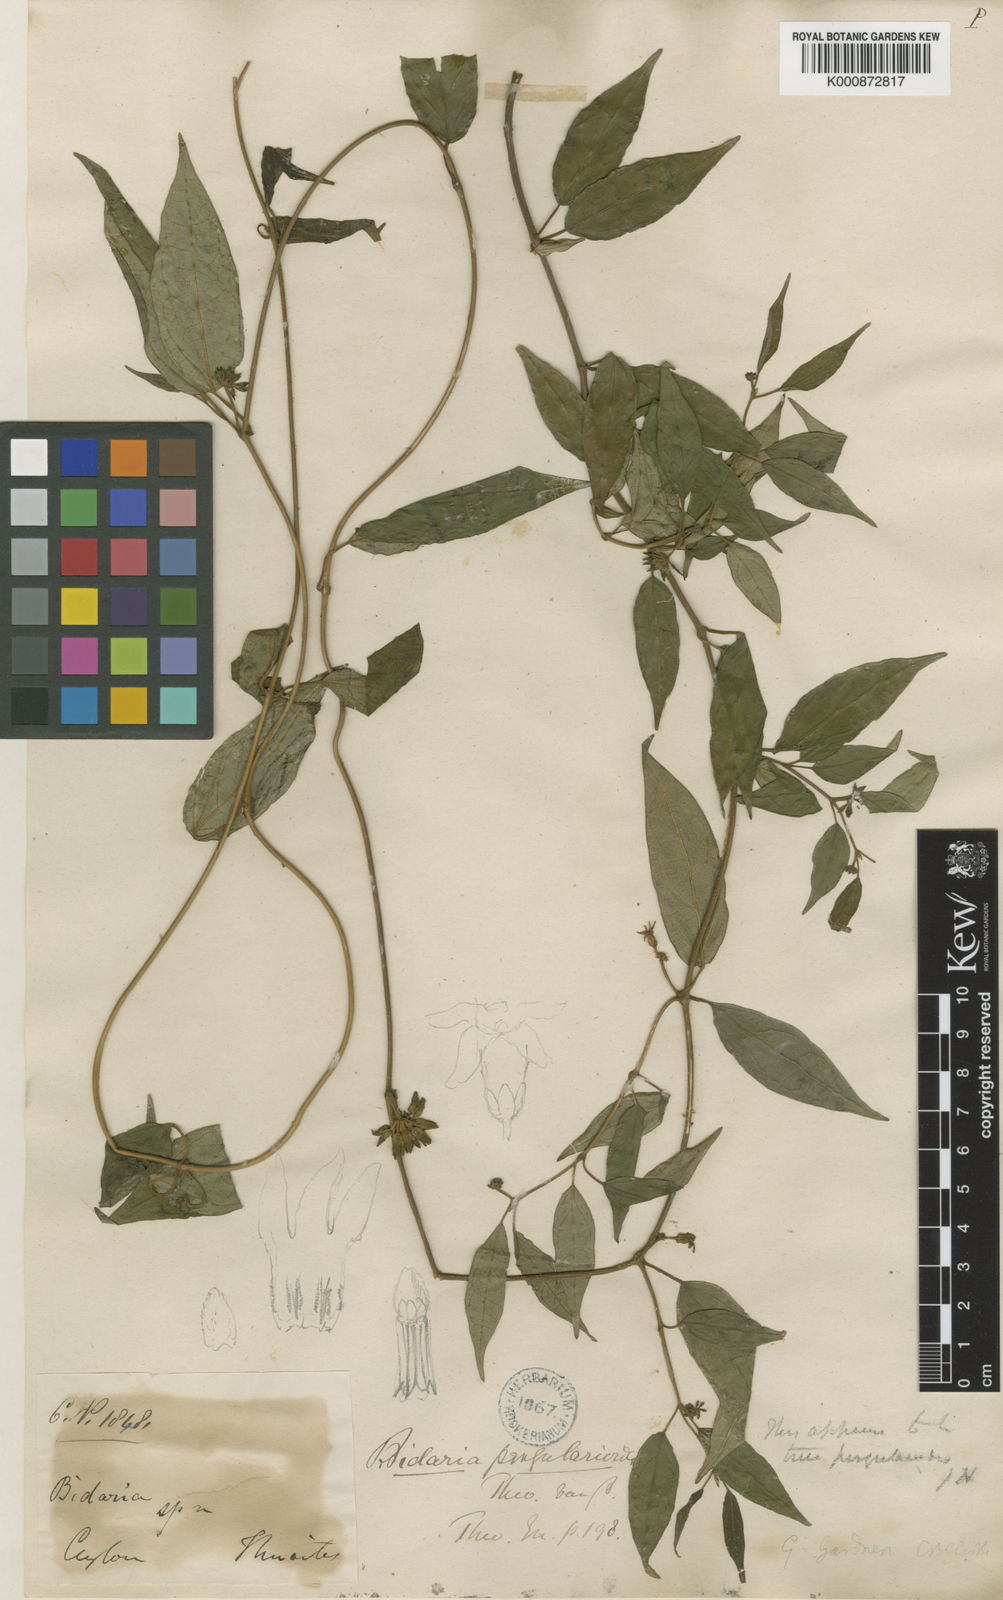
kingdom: Plantae
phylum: Tracheophyta
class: Magnoliopsida
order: Gentianales
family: Apocynaceae
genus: Gymnema
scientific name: Gymnema
